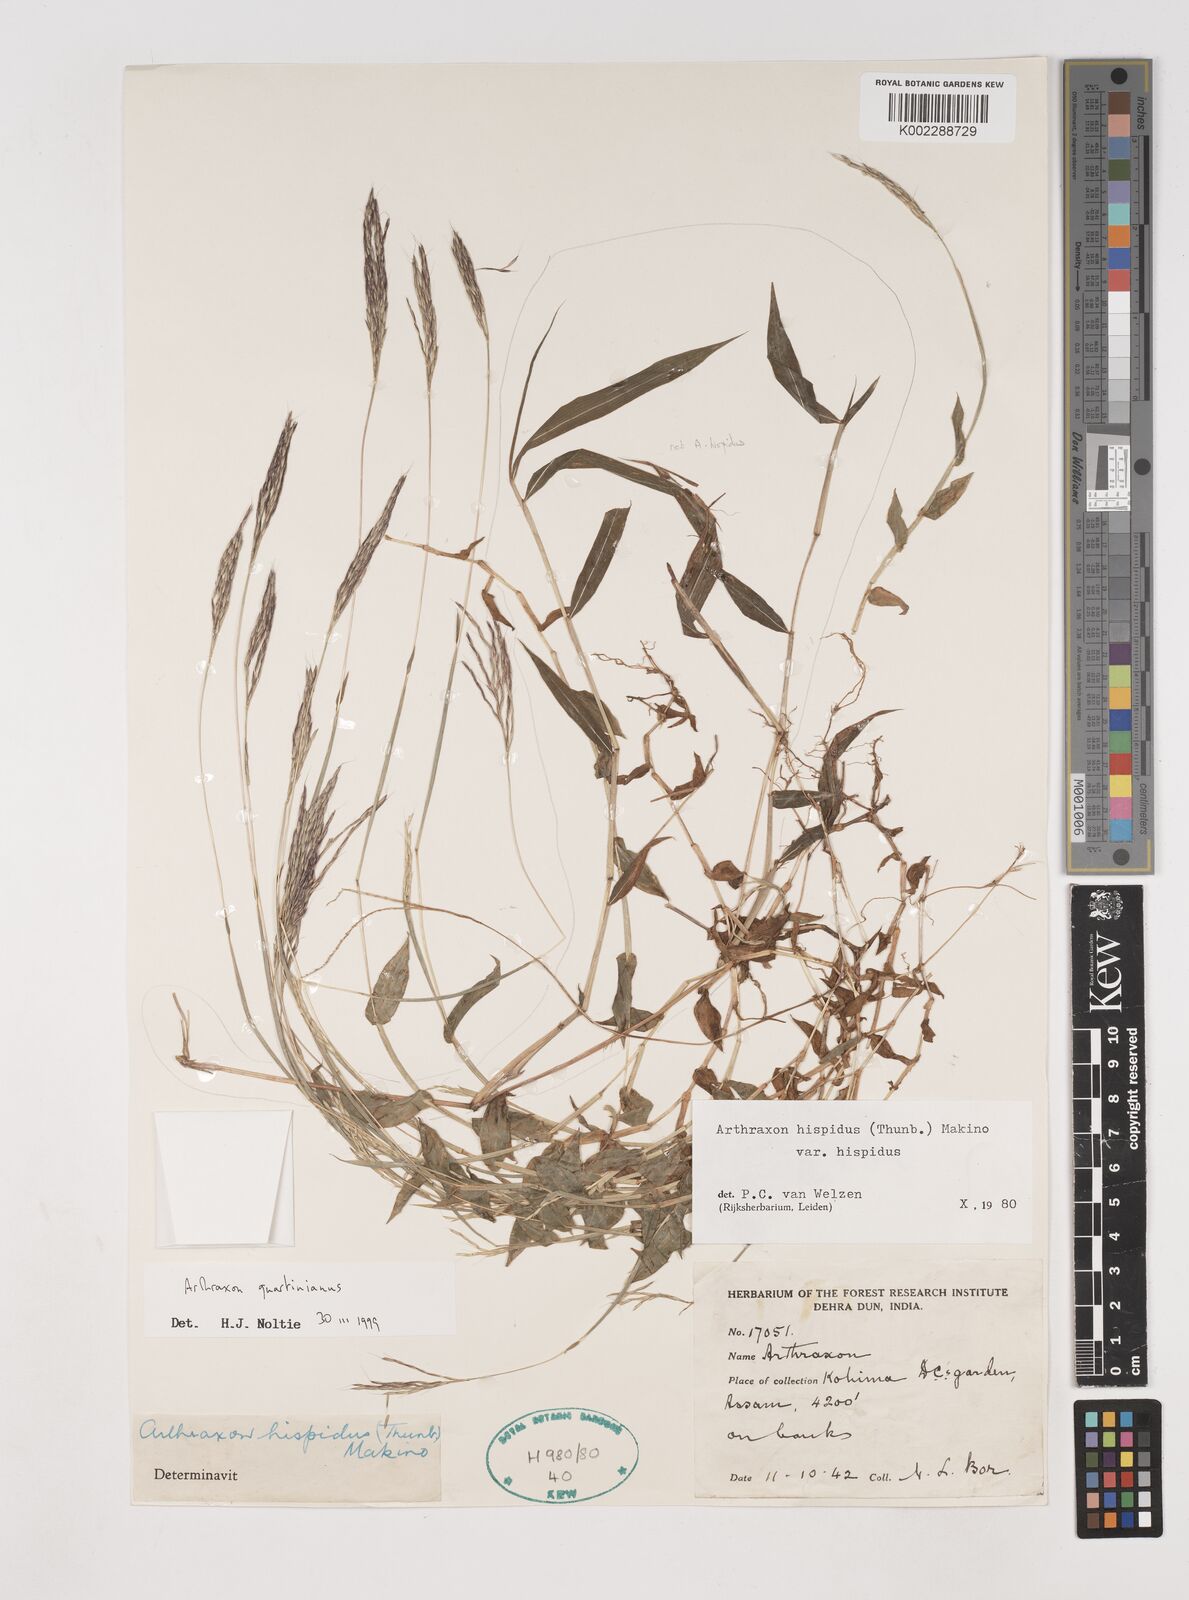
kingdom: Plantae
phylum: Tracheophyta
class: Liliopsida
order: Poales
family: Poaceae
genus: Arthraxon
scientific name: Arthraxon hispidus
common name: Small carpgrass
